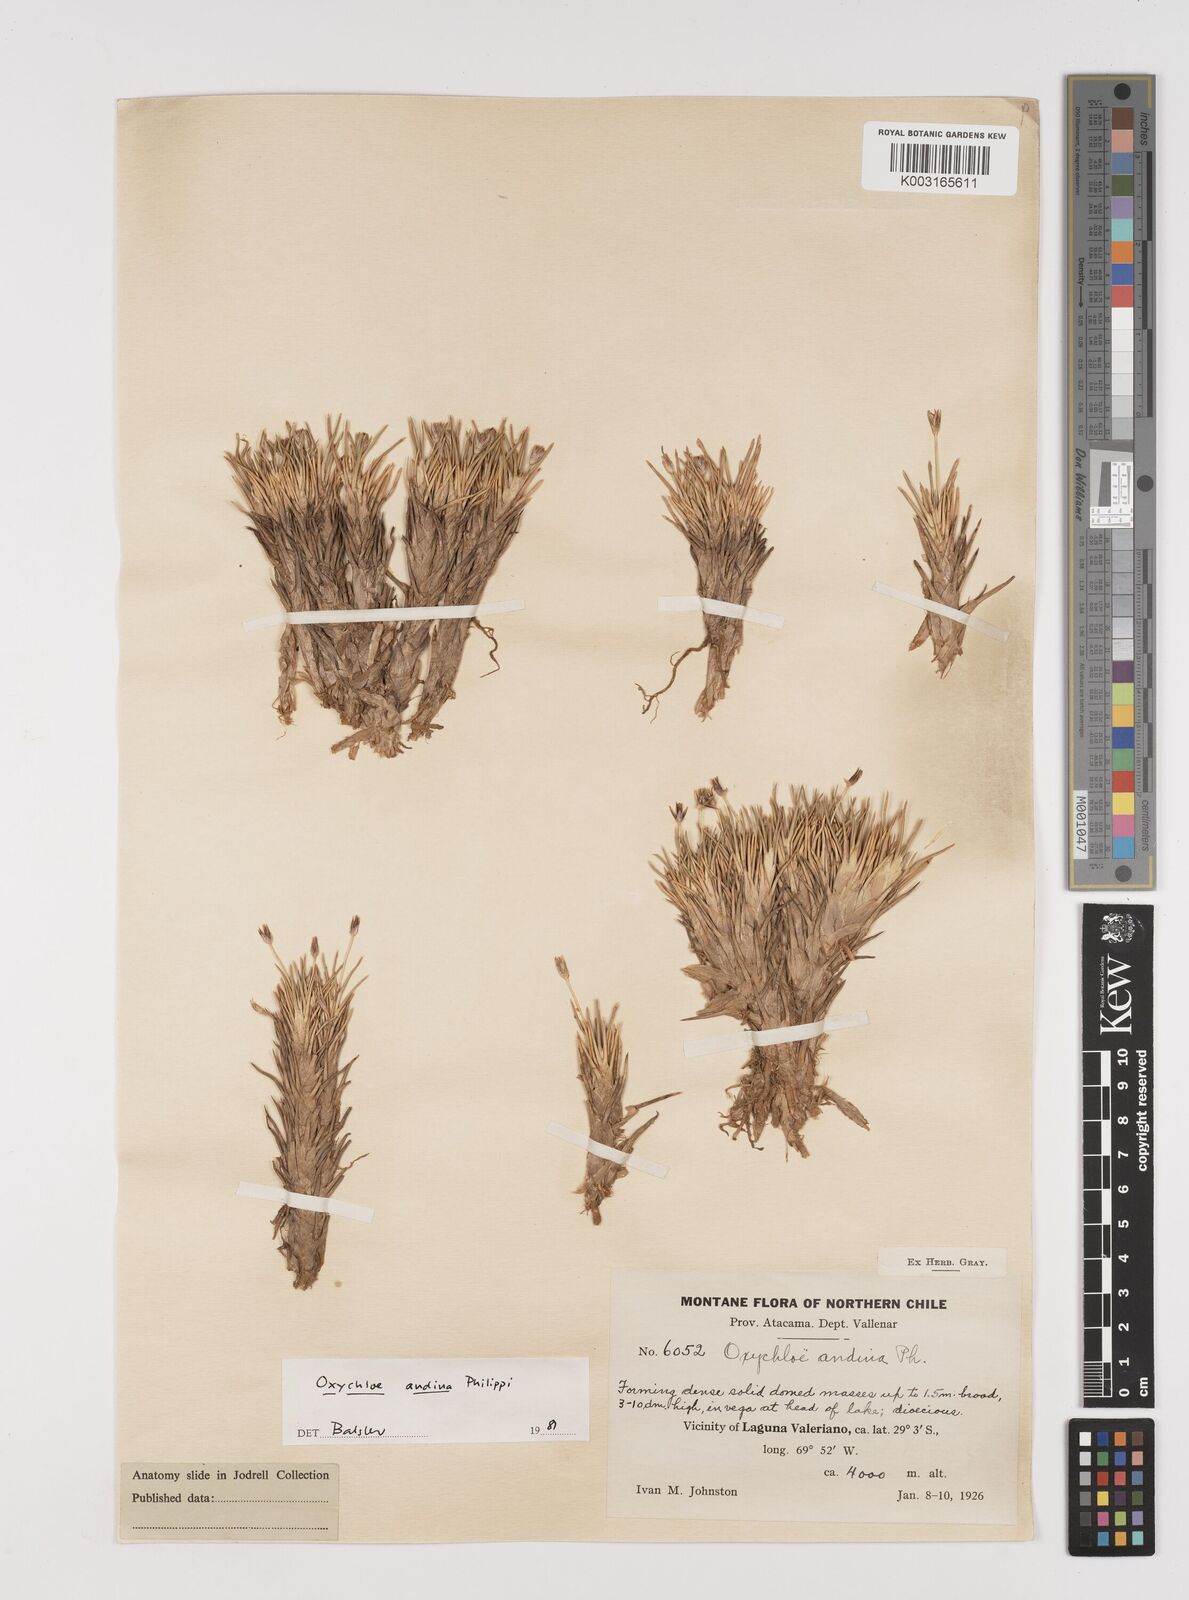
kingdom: Plantae
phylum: Tracheophyta
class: Liliopsida
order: Poales
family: Juncaceae
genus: Oxychloe
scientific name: Oxychloe andina
